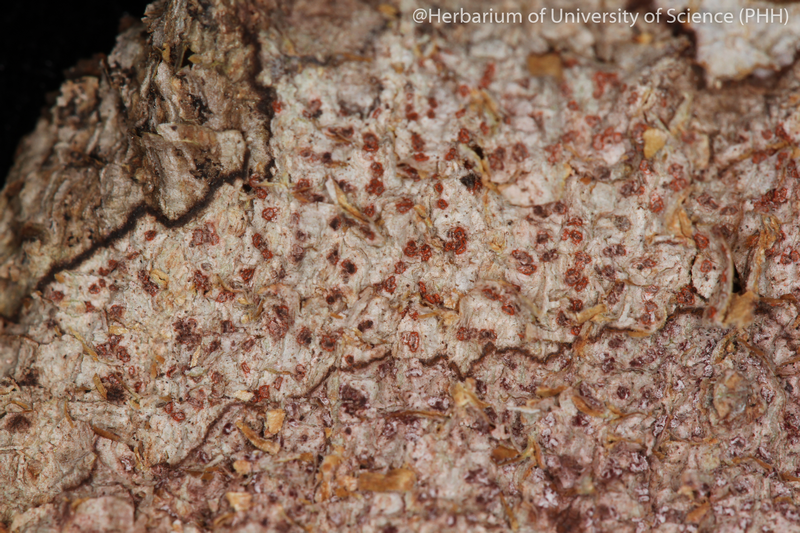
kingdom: Fungi
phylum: Ascomycota
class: Arthoniomycetes
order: Arthoniales
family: Arthoniaceae
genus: Arthonia
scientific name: Arthonia
